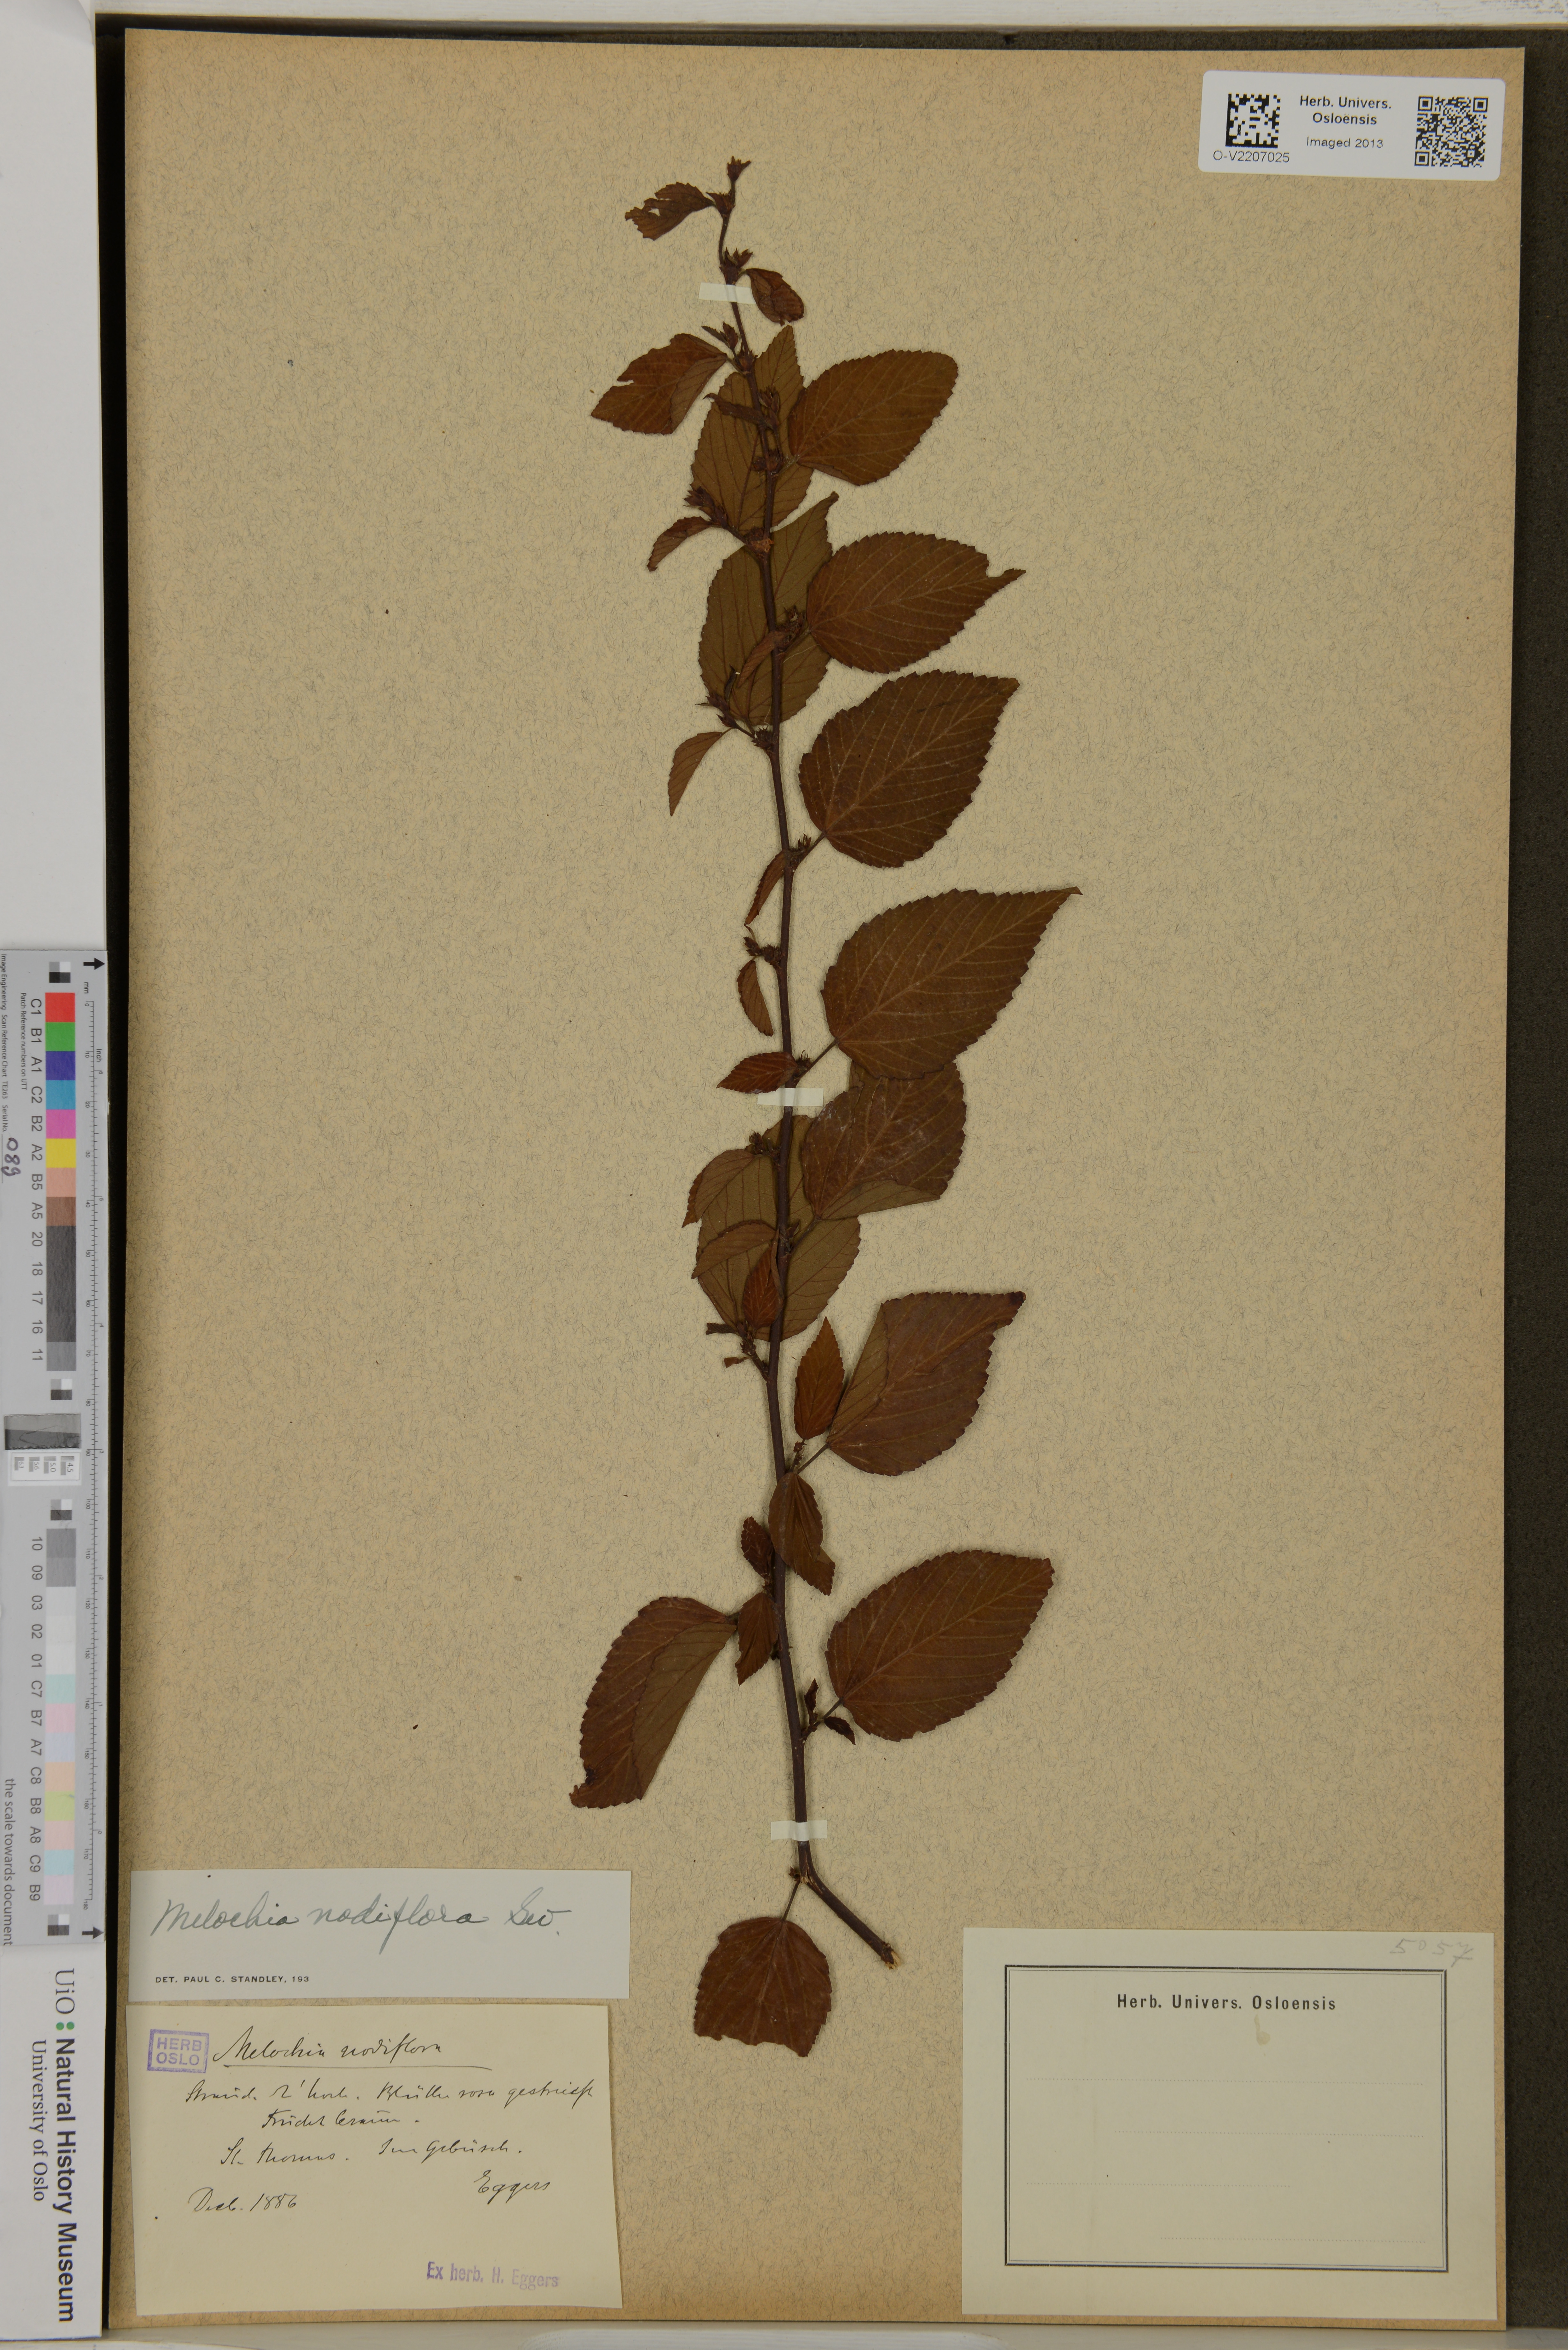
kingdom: Plantae
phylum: Tracheophyta
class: Magnoliopsida
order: Malvales
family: Malvaceae
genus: Melochia
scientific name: Melochia nodiflora
